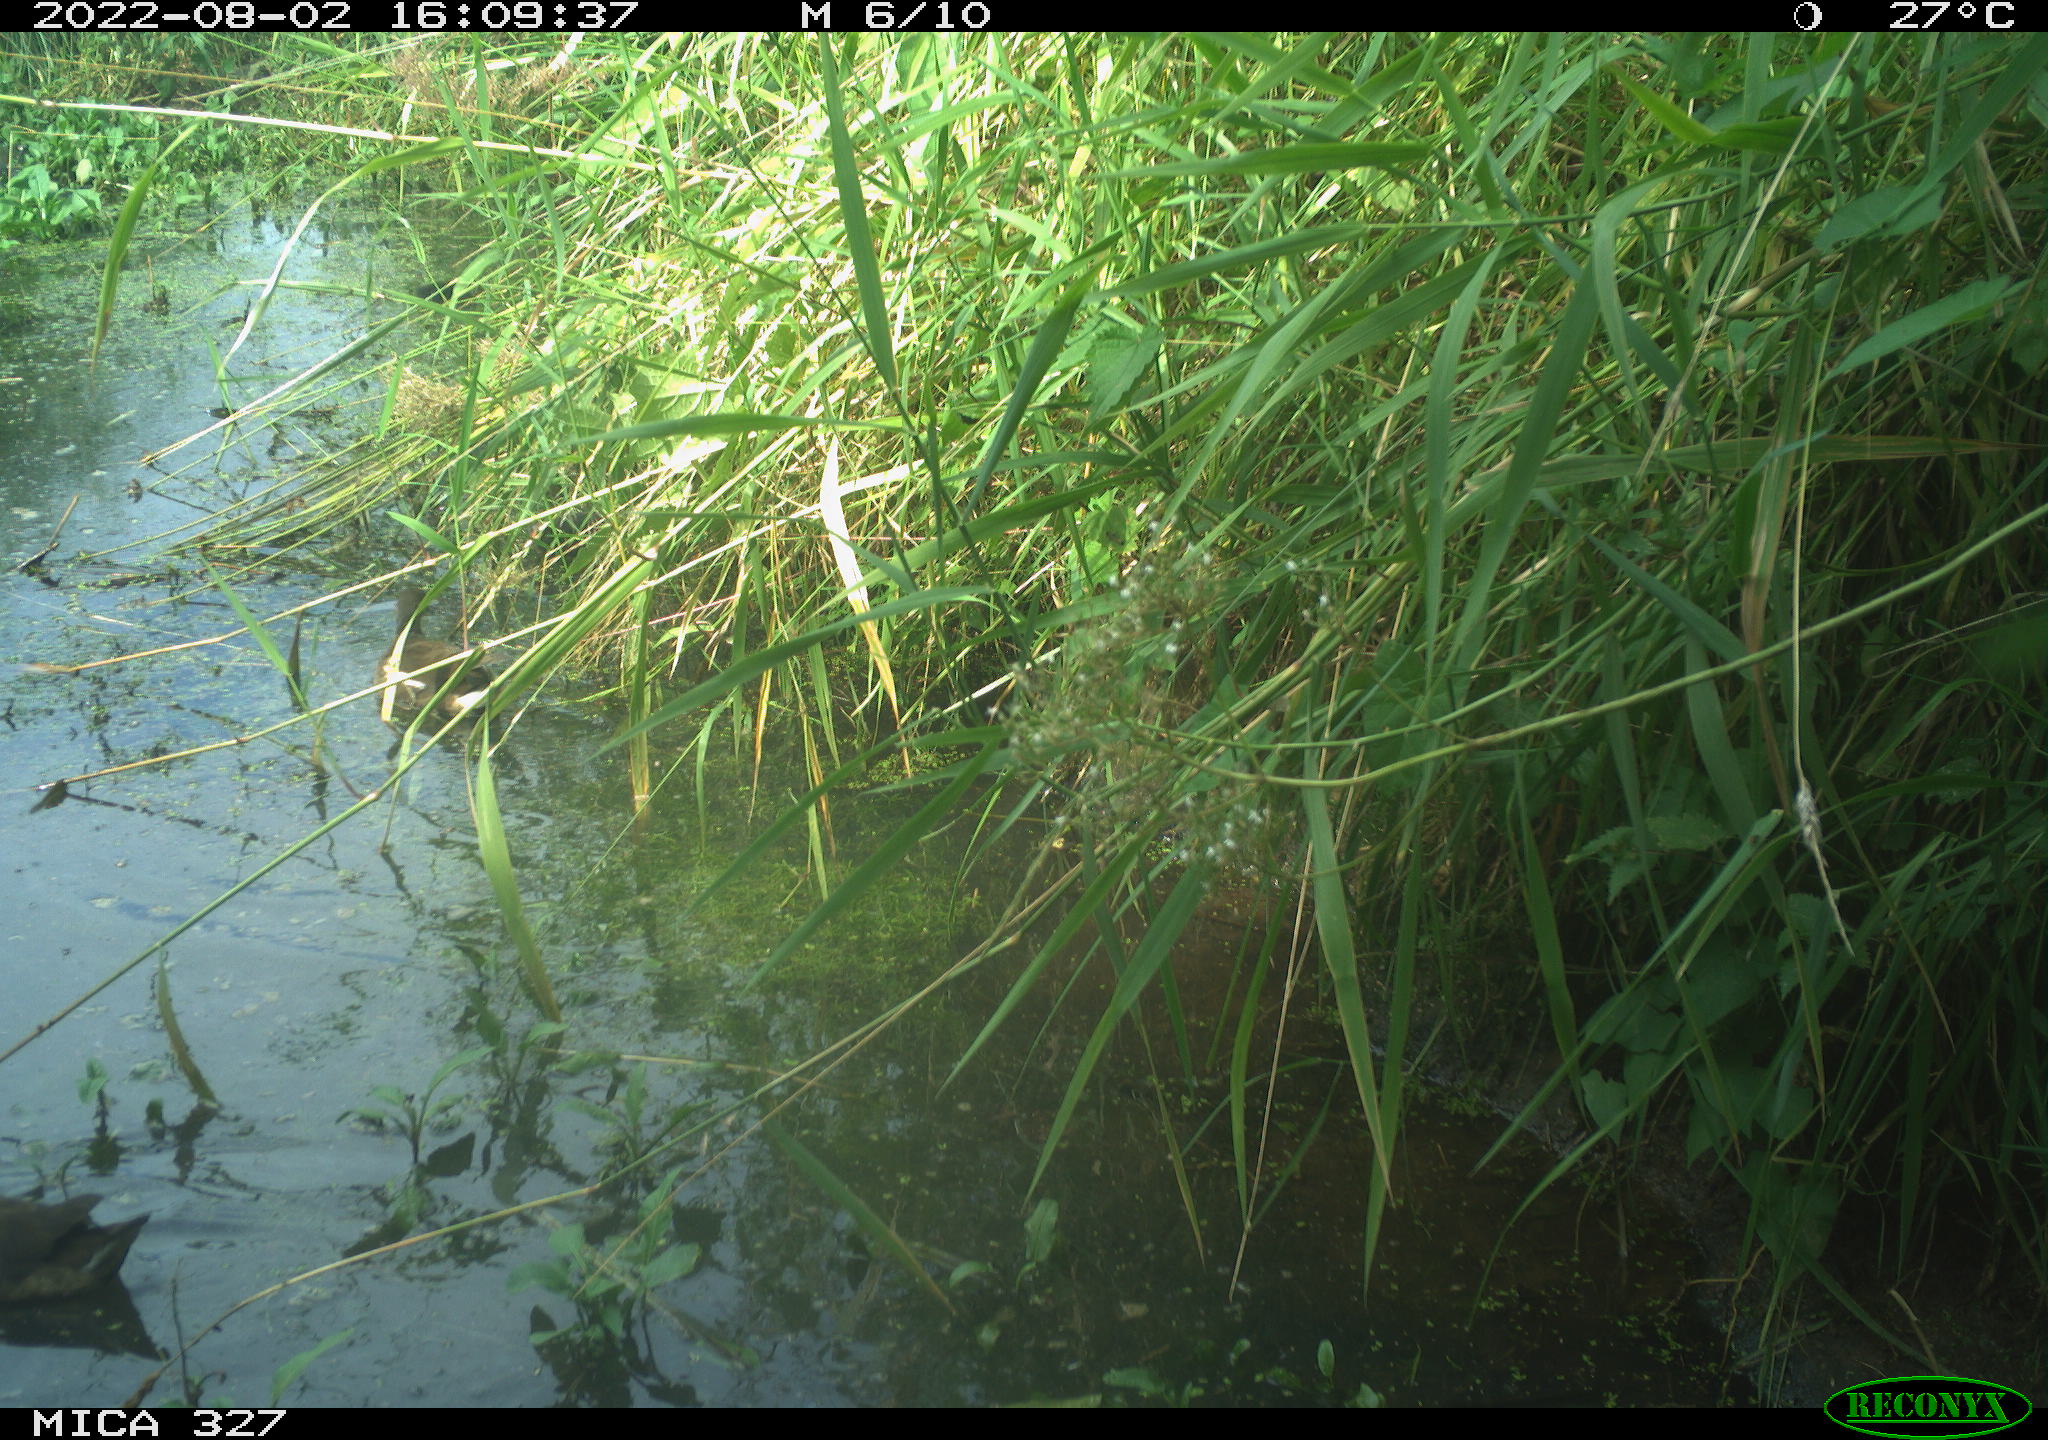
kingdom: Animalia
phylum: Chordata
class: Aves
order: Gruiformes
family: Rallidae
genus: Gallinula
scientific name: Gallinula chloropus
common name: Common moorhen
